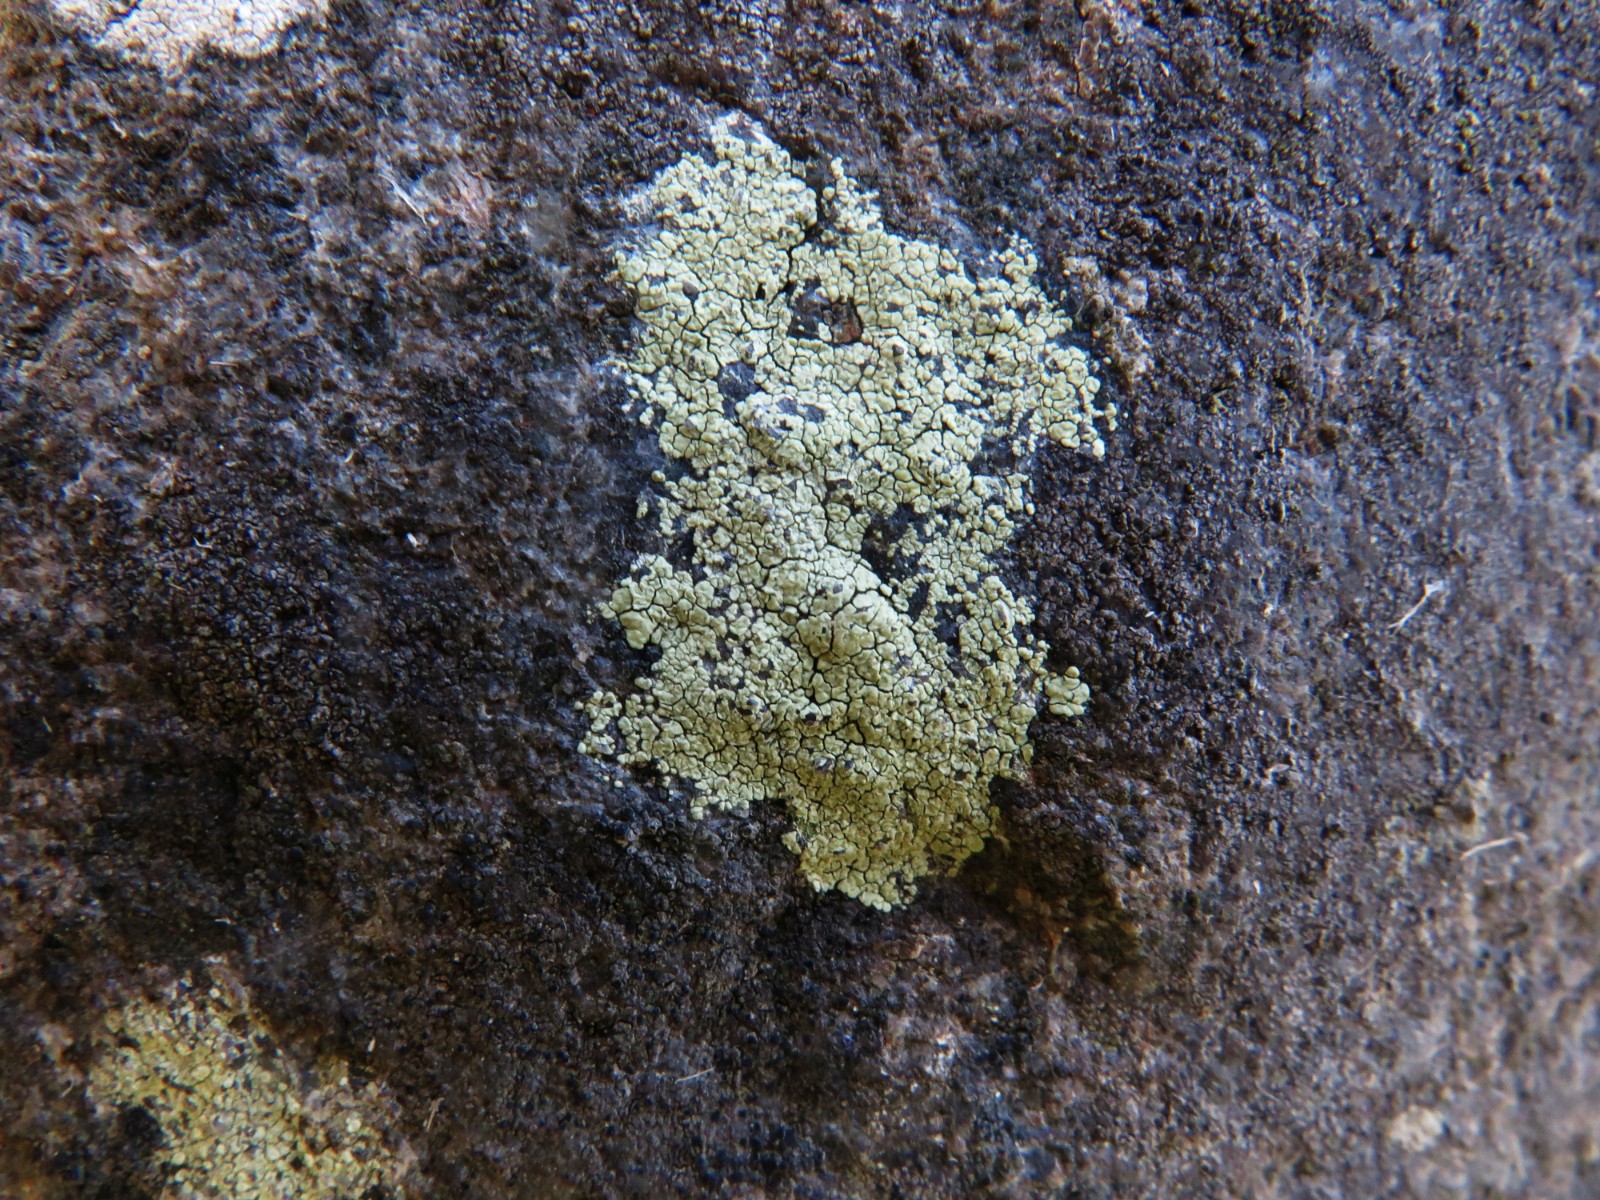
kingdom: Fungi
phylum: Ascomycota
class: Lecanoromycetes
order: Lecanorales
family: Lecanoraceae
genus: Glaucomaria
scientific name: Glaucomaria sulphurea
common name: svovlgul kantskivelav
